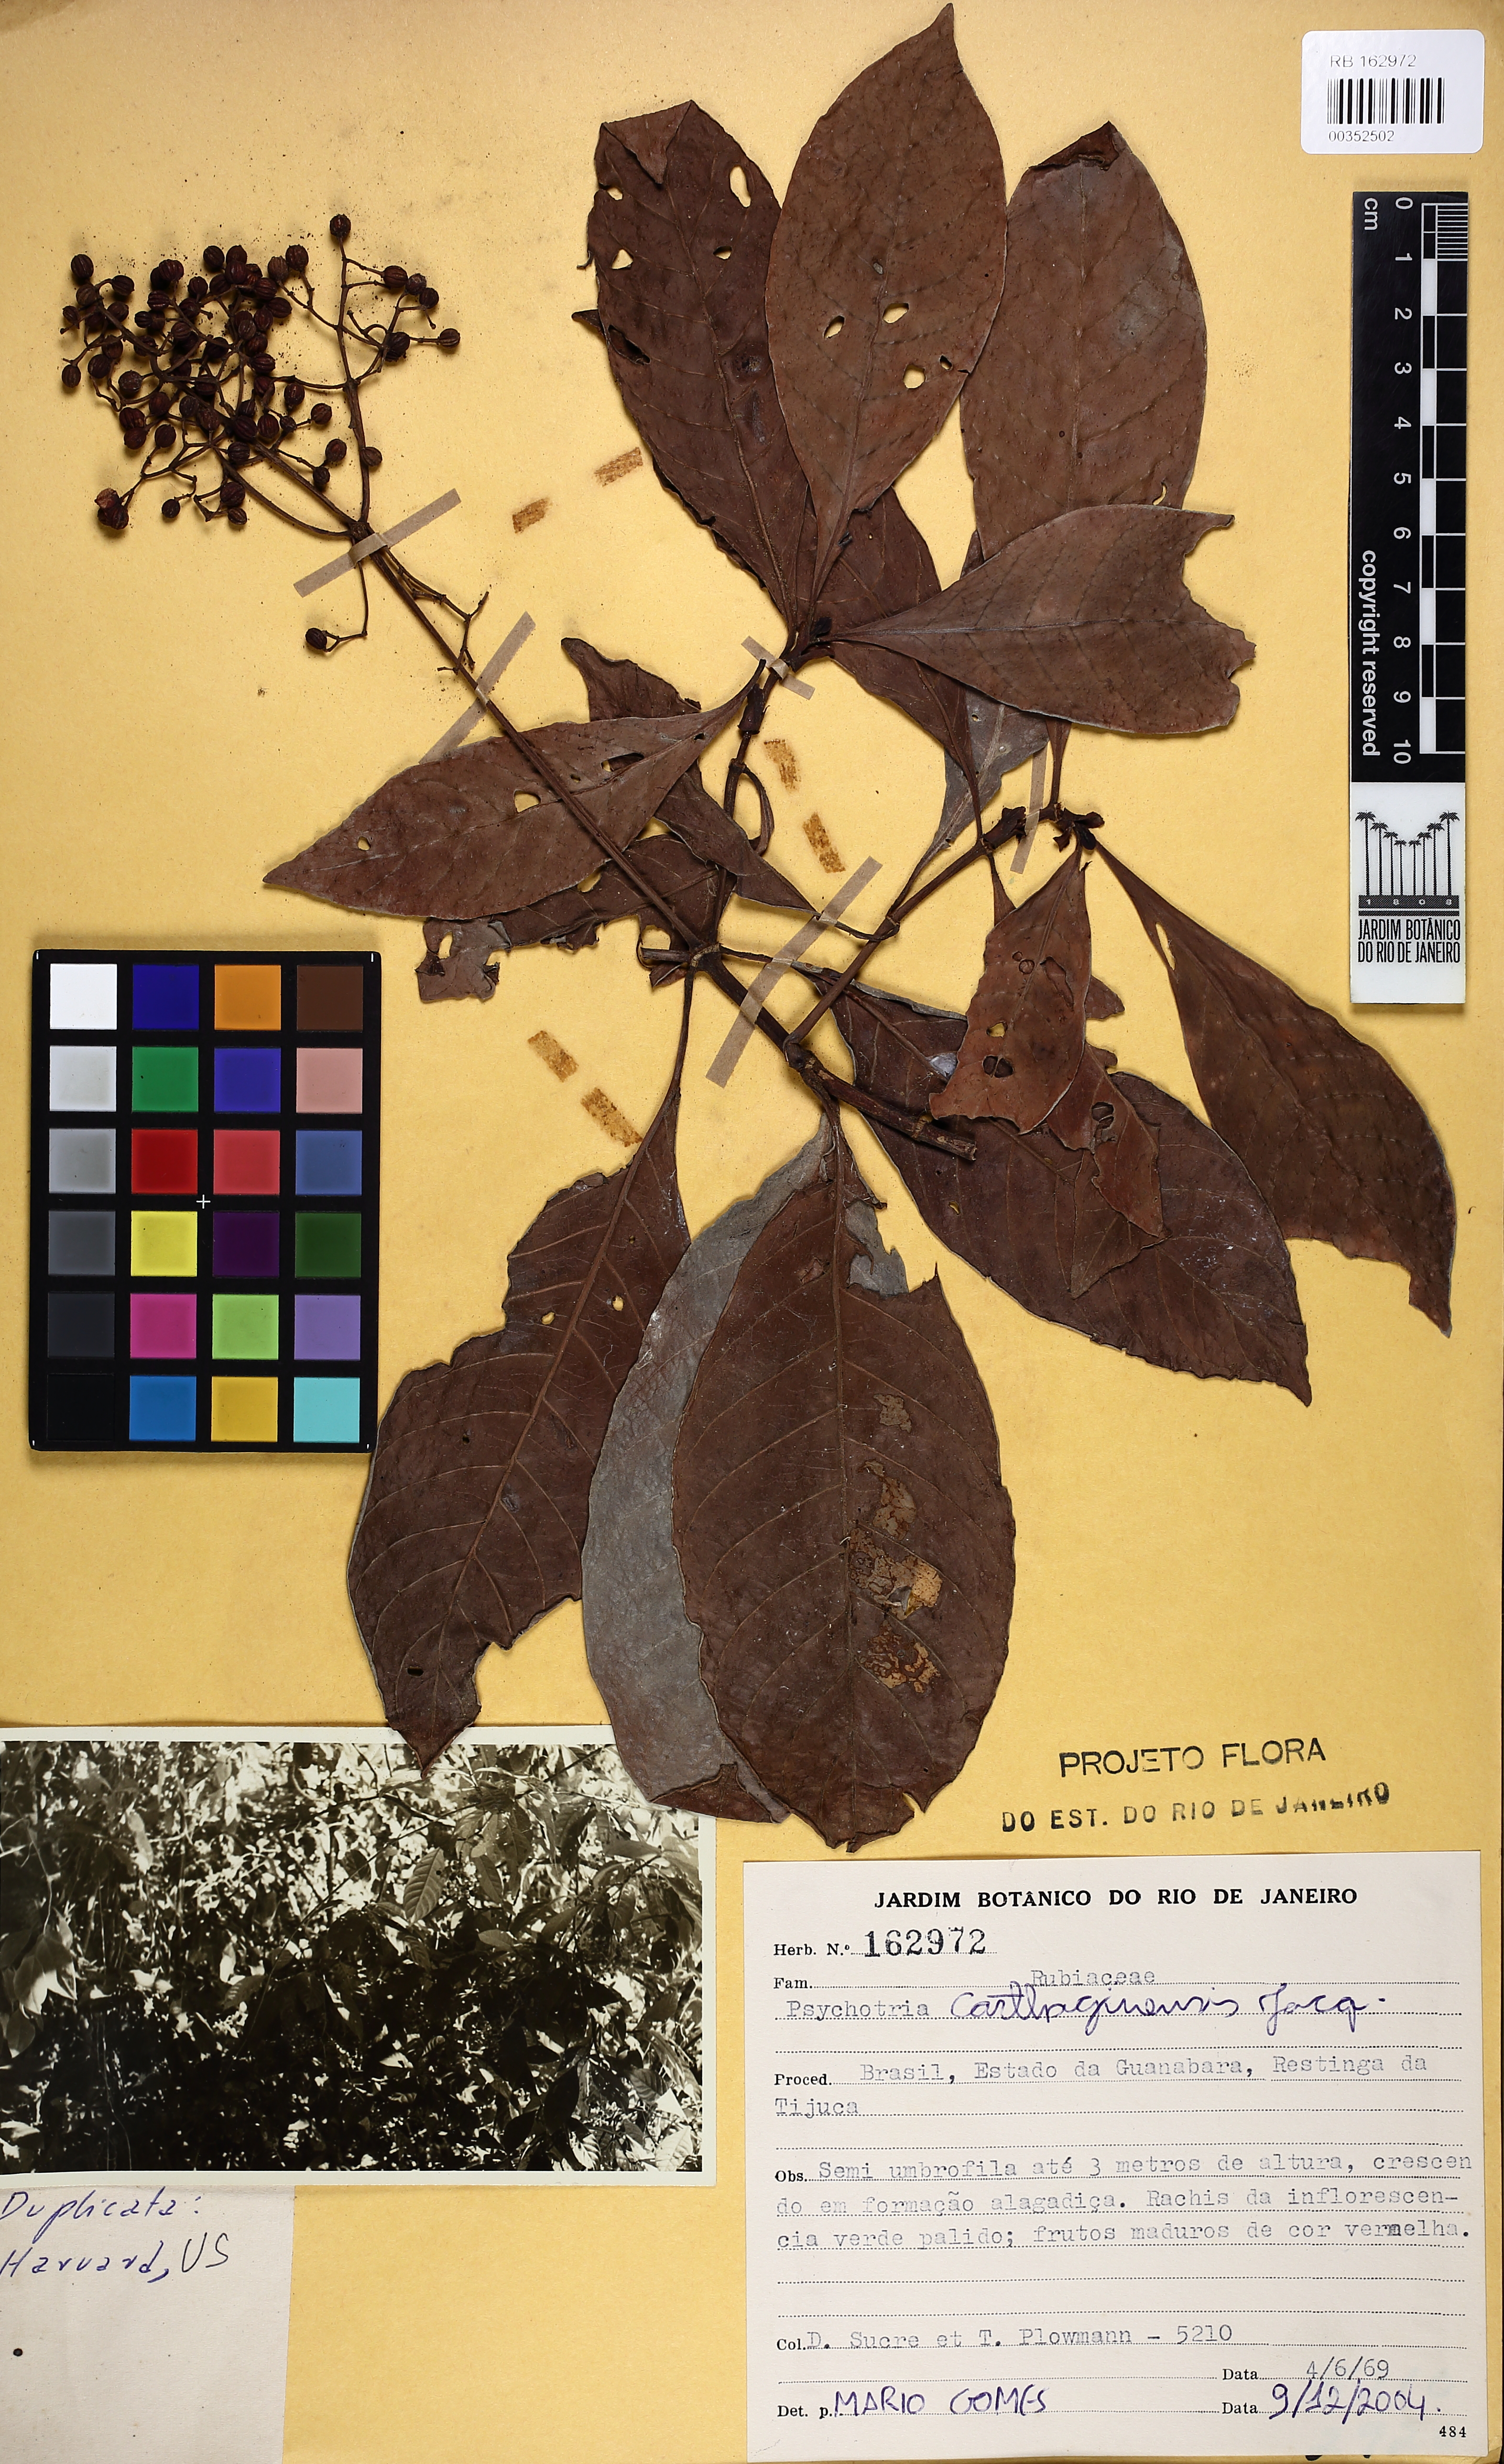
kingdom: Plantae
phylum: Tracheophyta
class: Magnoliopsida
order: Gentianales
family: Rubiaceae
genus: Psychotria
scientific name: Psychotria carthagenensis
